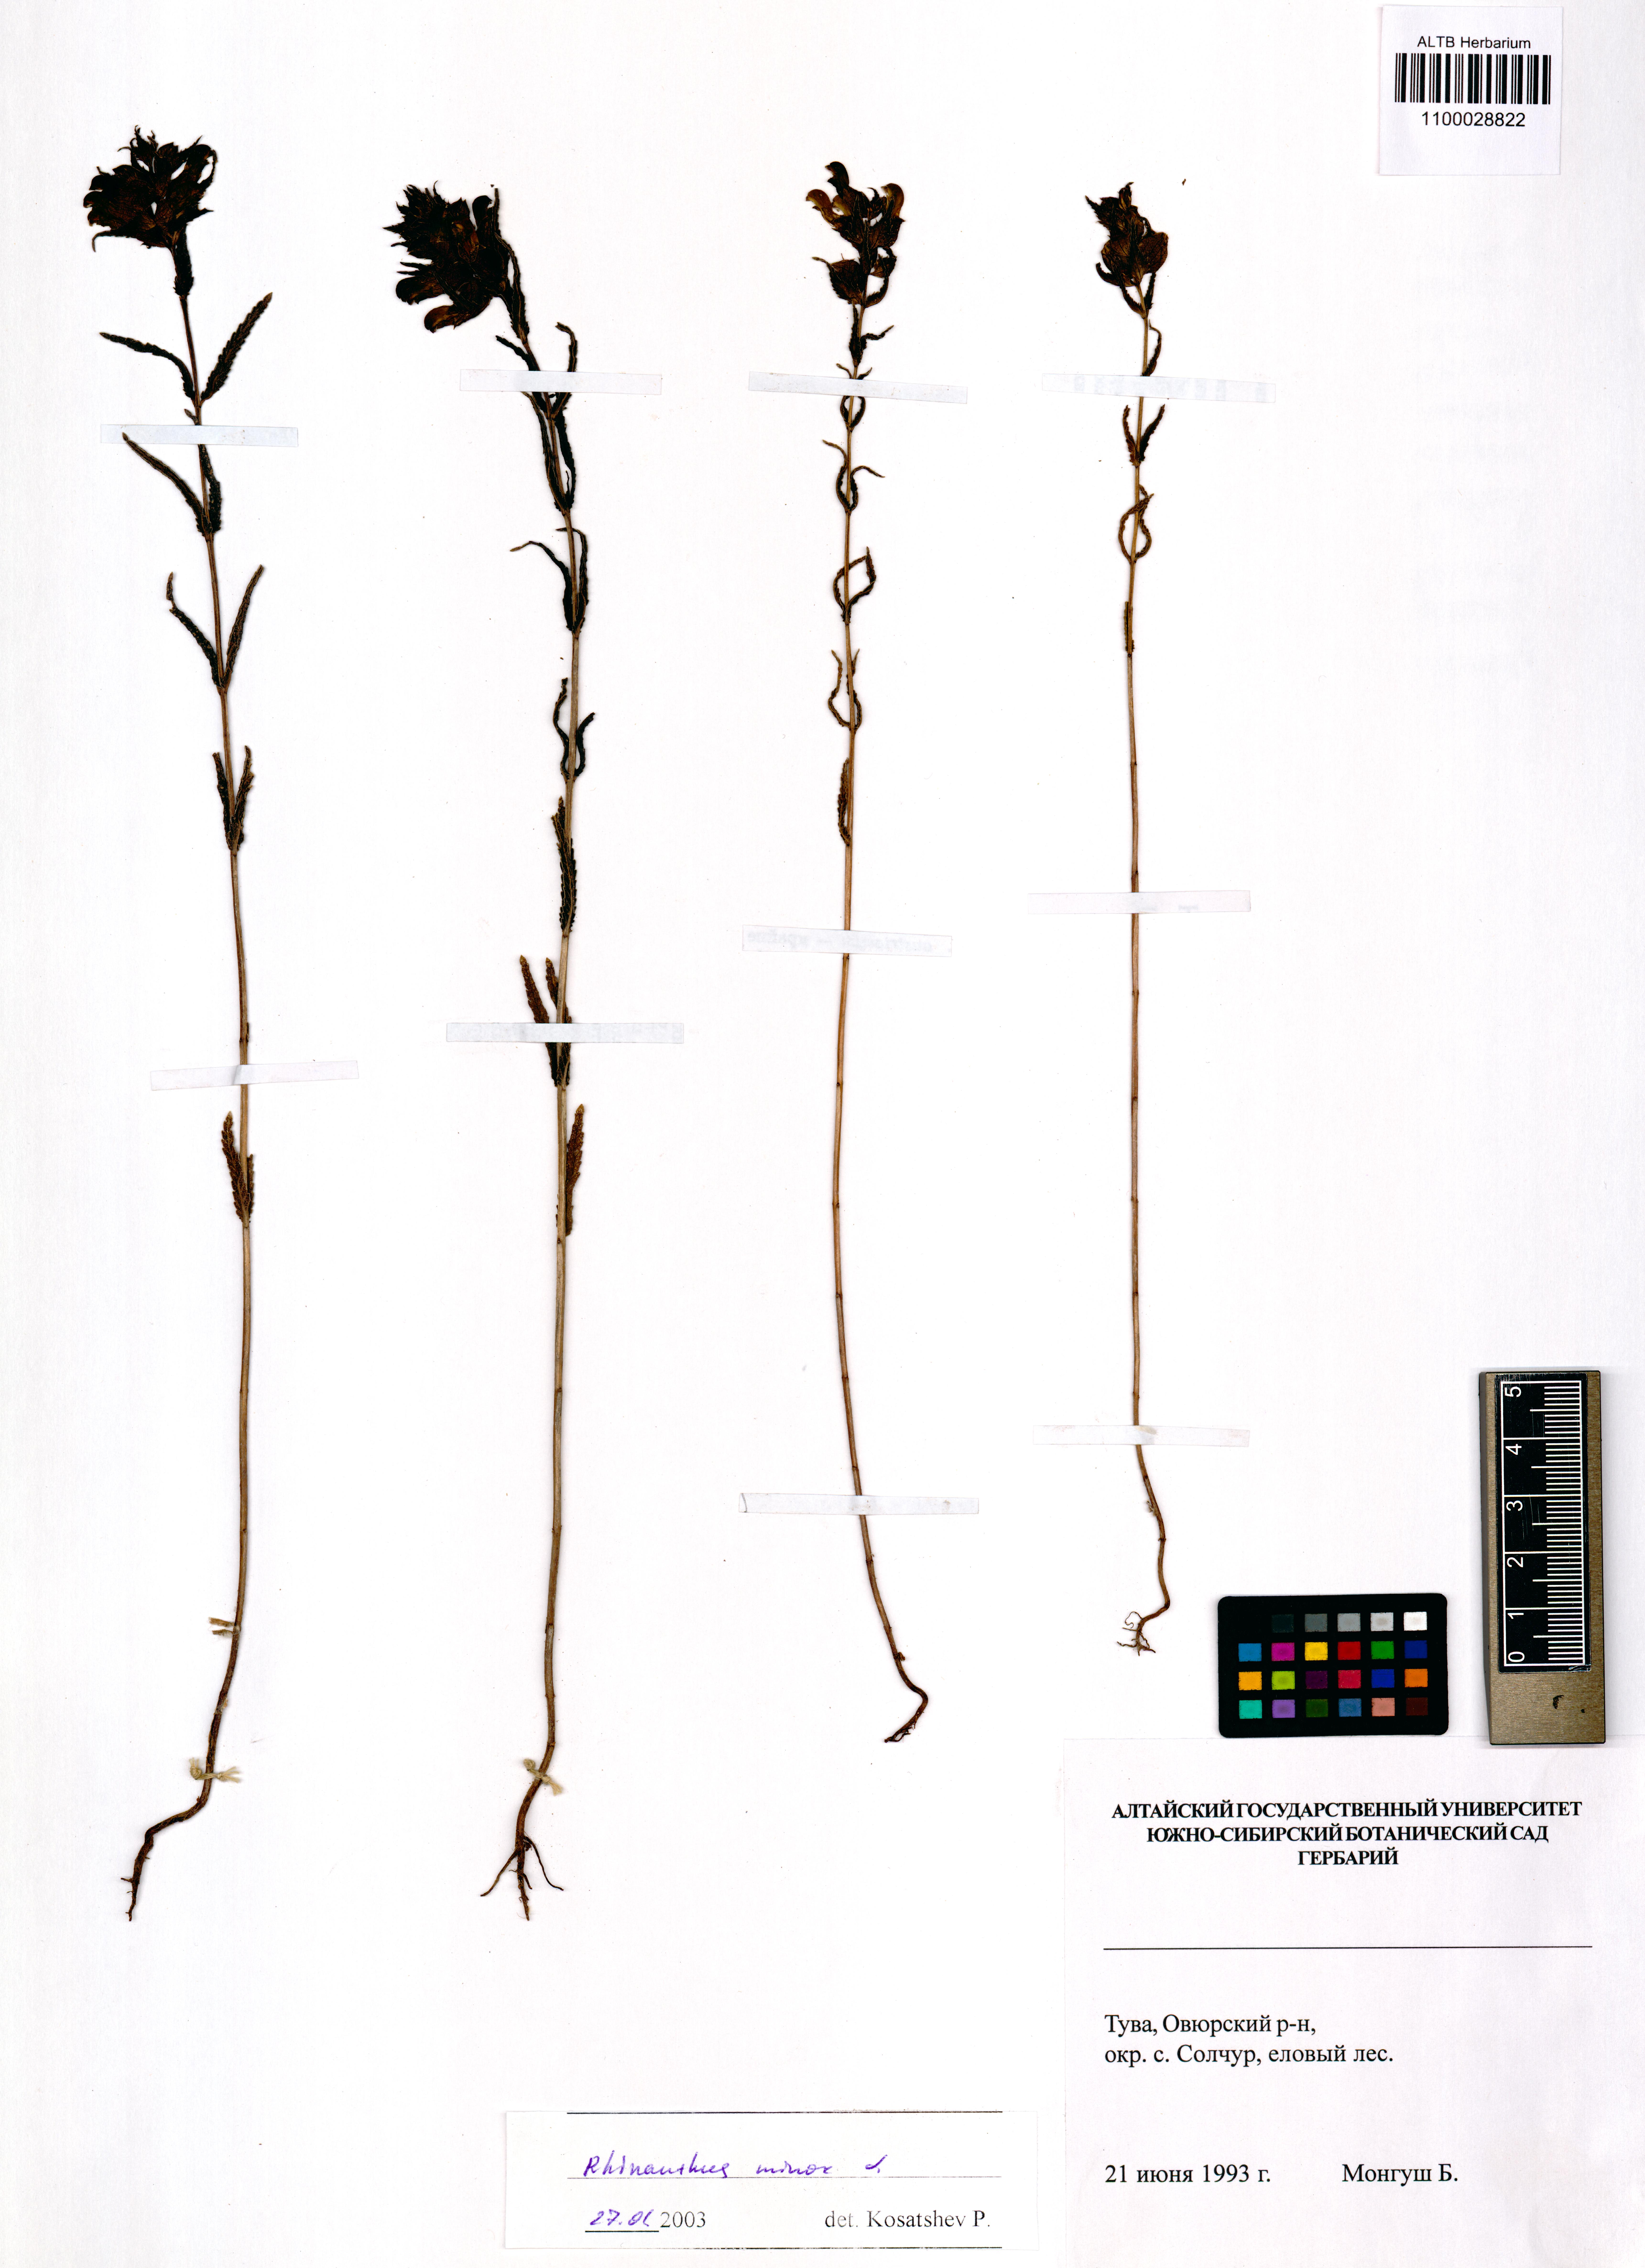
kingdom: Plantae
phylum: Tracheophyta
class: Magnoliopsida
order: Lamiales
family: Orobanchaceae
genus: Rhinanthus
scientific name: Rhinanthus minor
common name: Yellow-rattle
